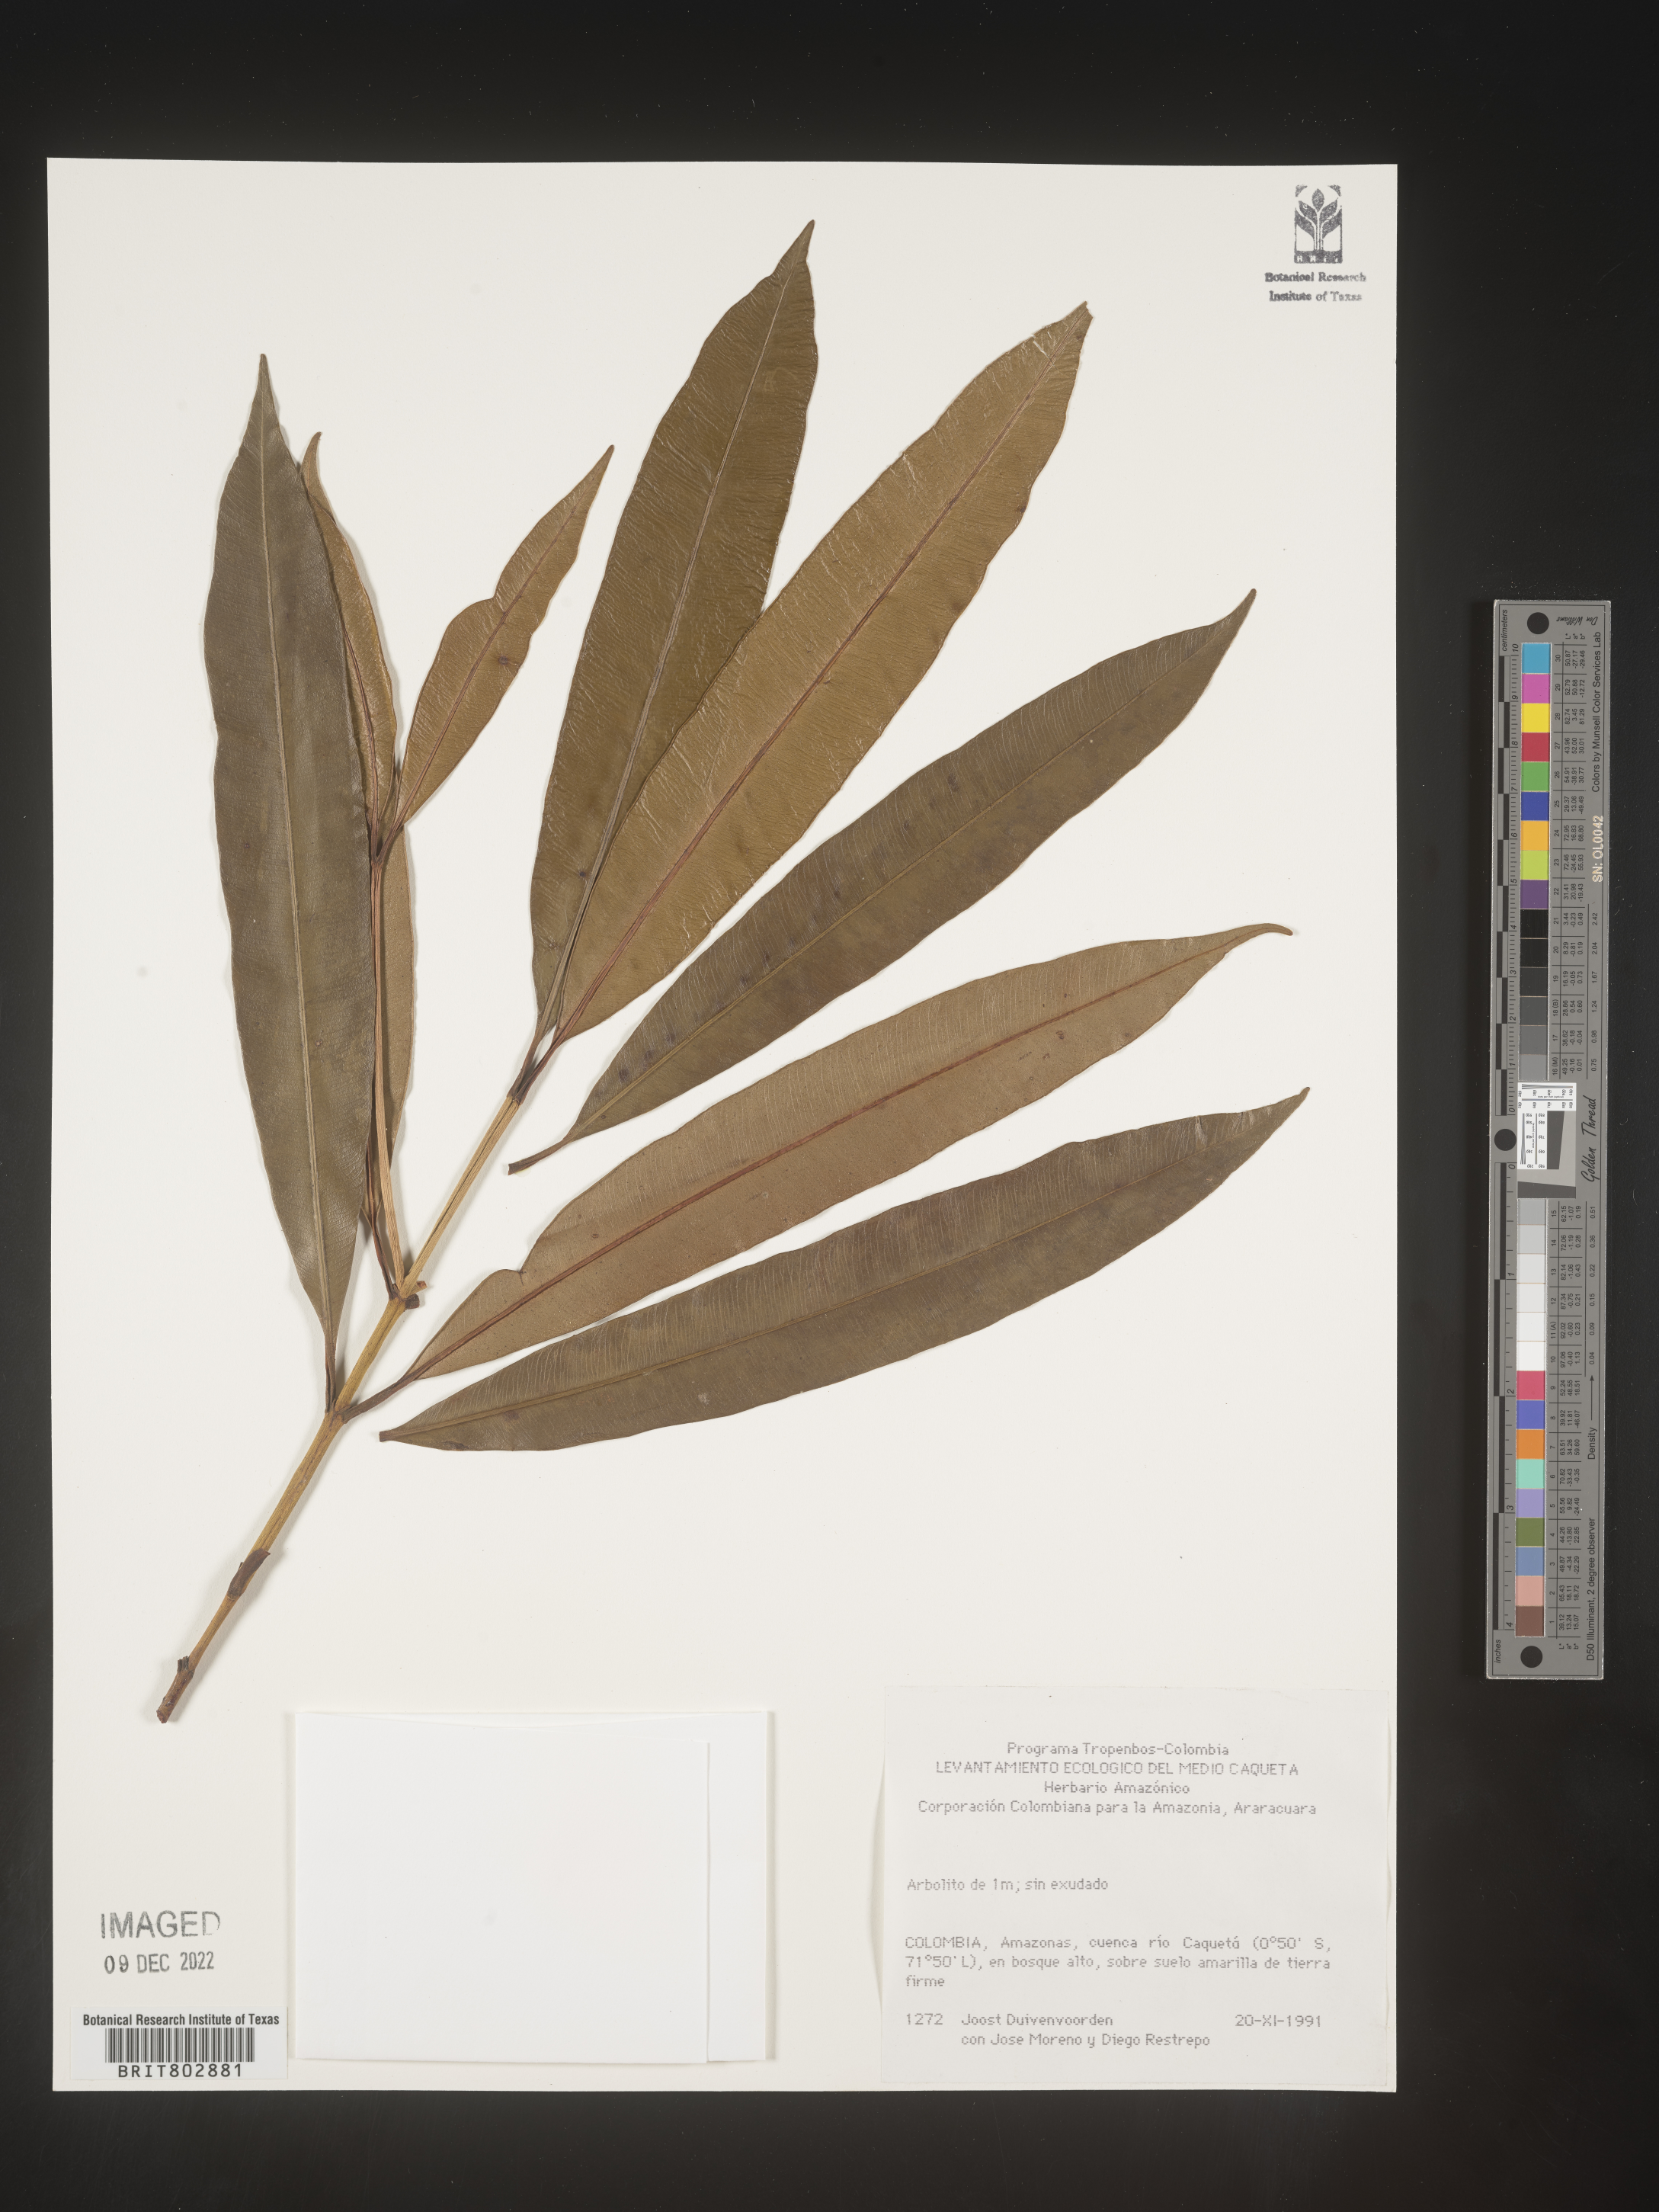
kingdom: Plantae
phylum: Tracheophyta
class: Magnoliopsida
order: Malpighiales
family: Clusiaceae
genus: Lorostemon
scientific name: Lorostemon
